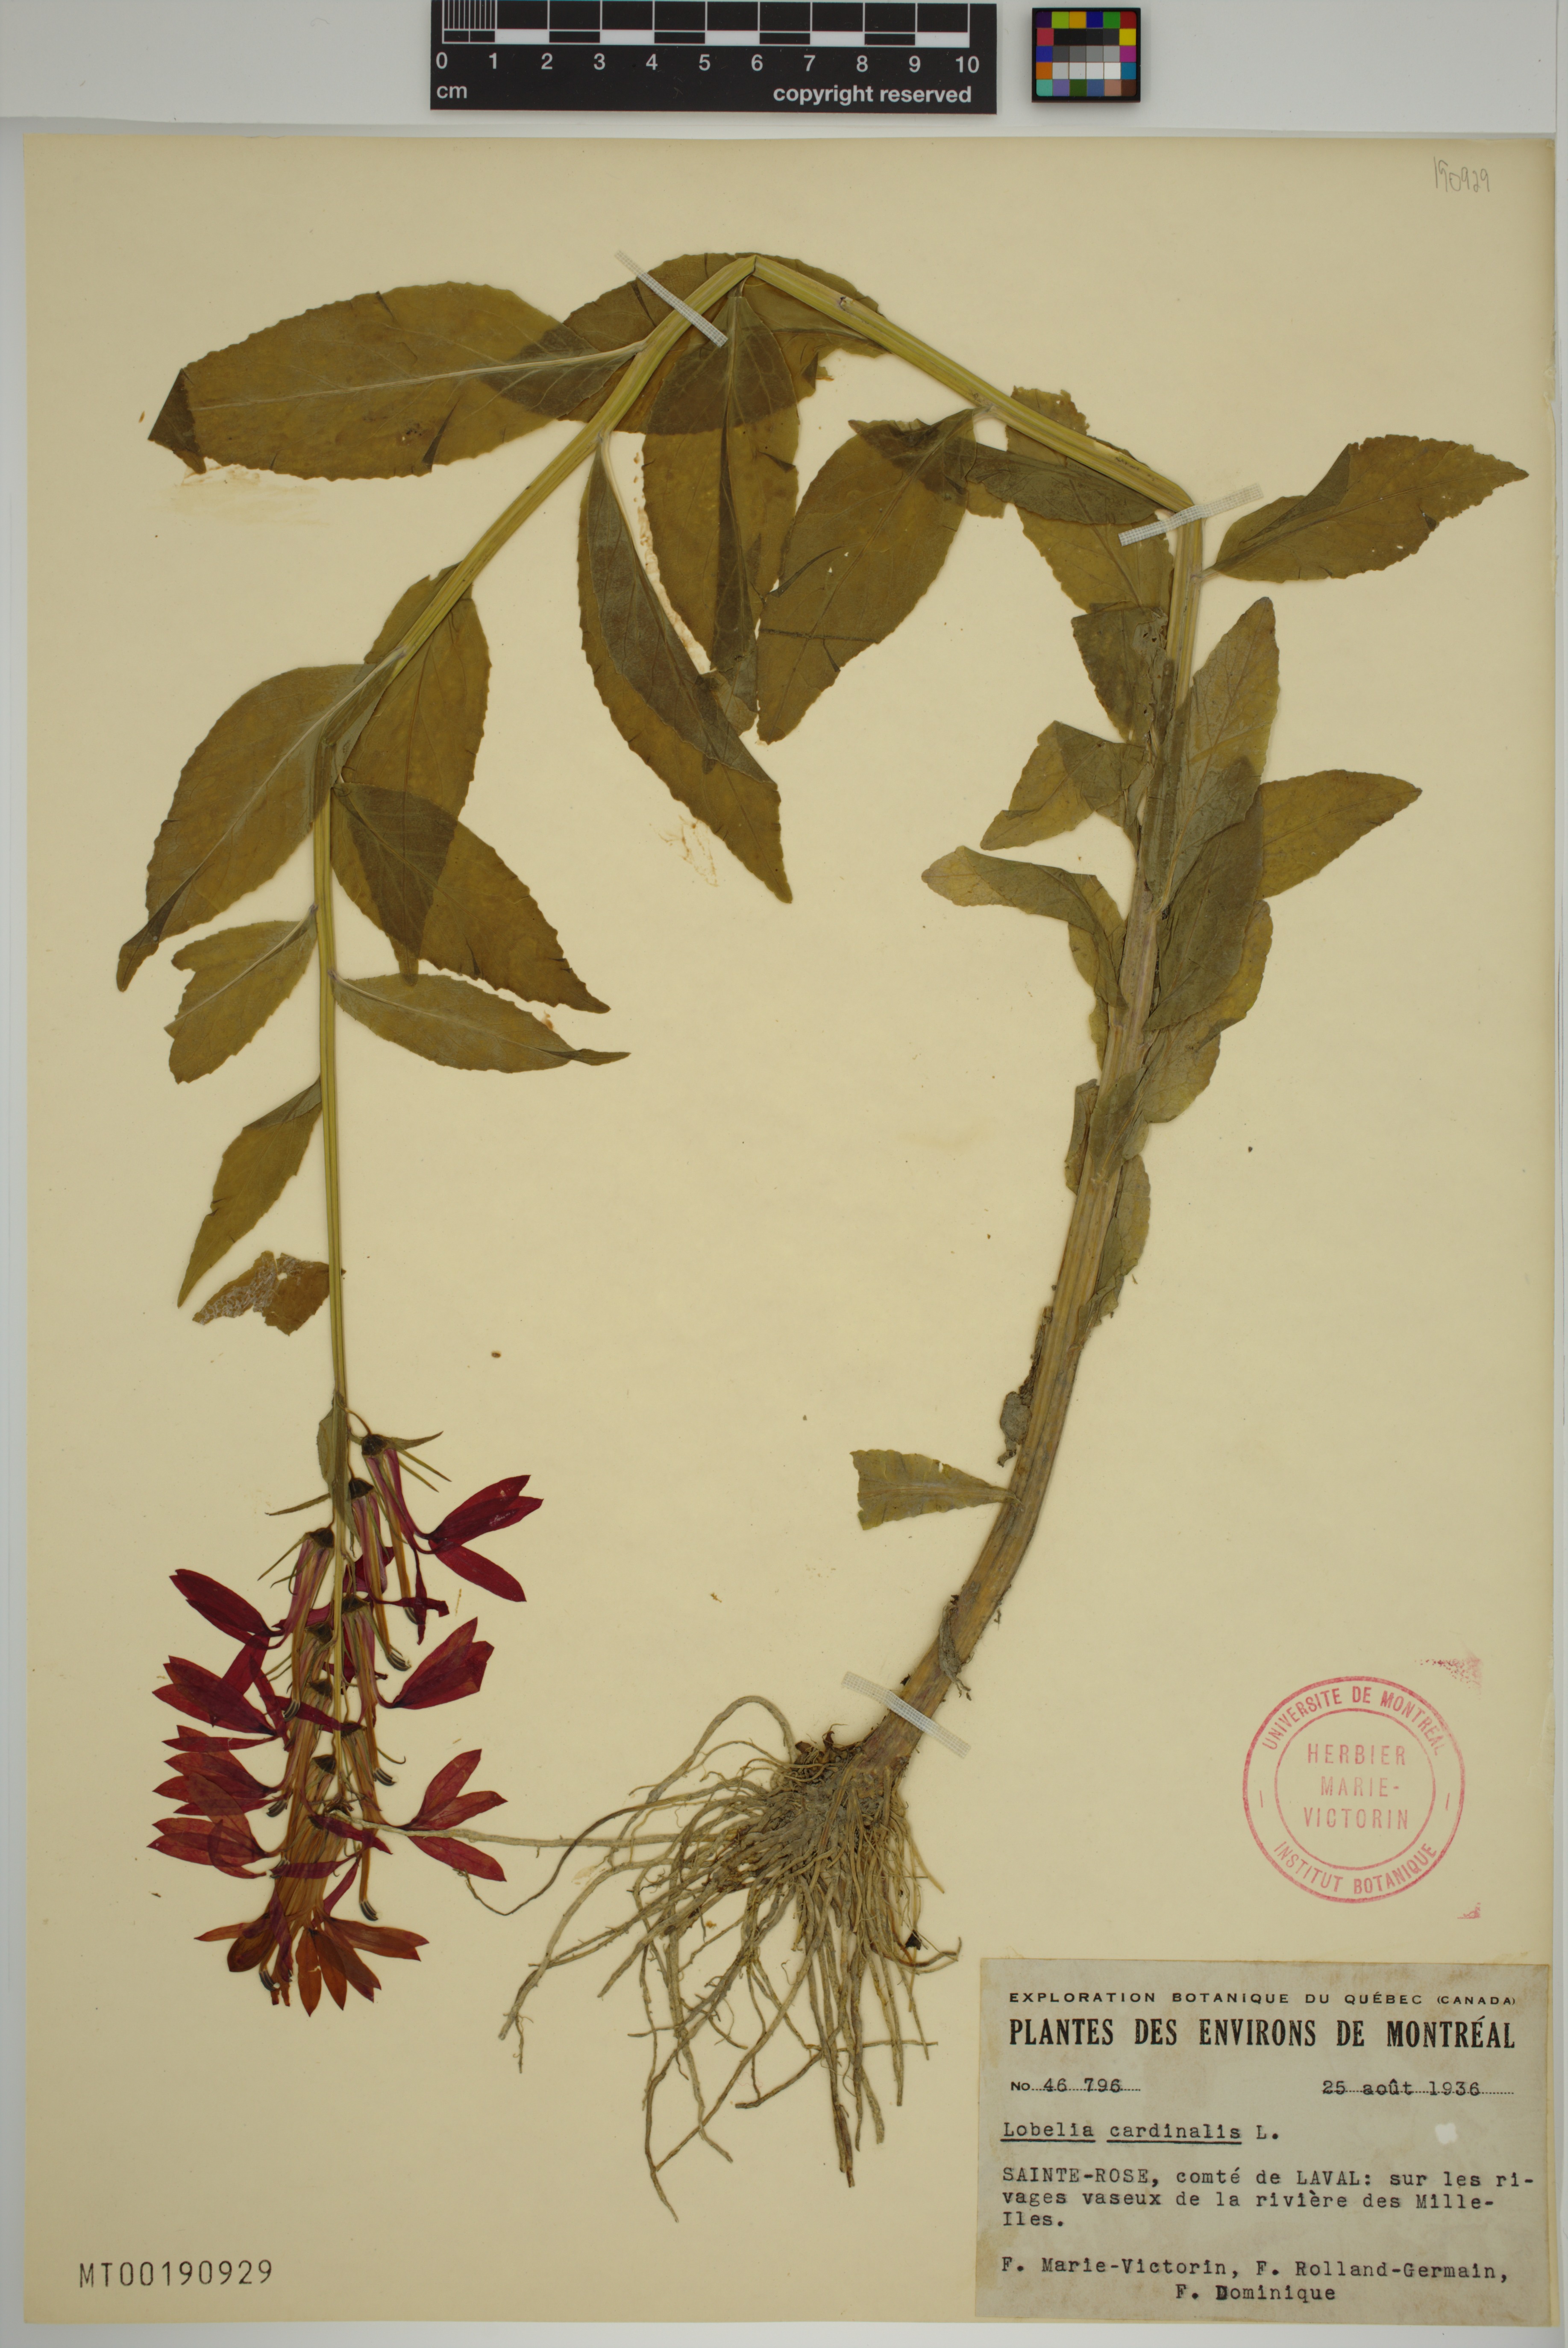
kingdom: Plantae
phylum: Tracheophyta
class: Magnoliopsida
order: Asterales
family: Campanulaceae
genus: Lobelia
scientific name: Lobelia cardinalis
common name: Cardinal flower
